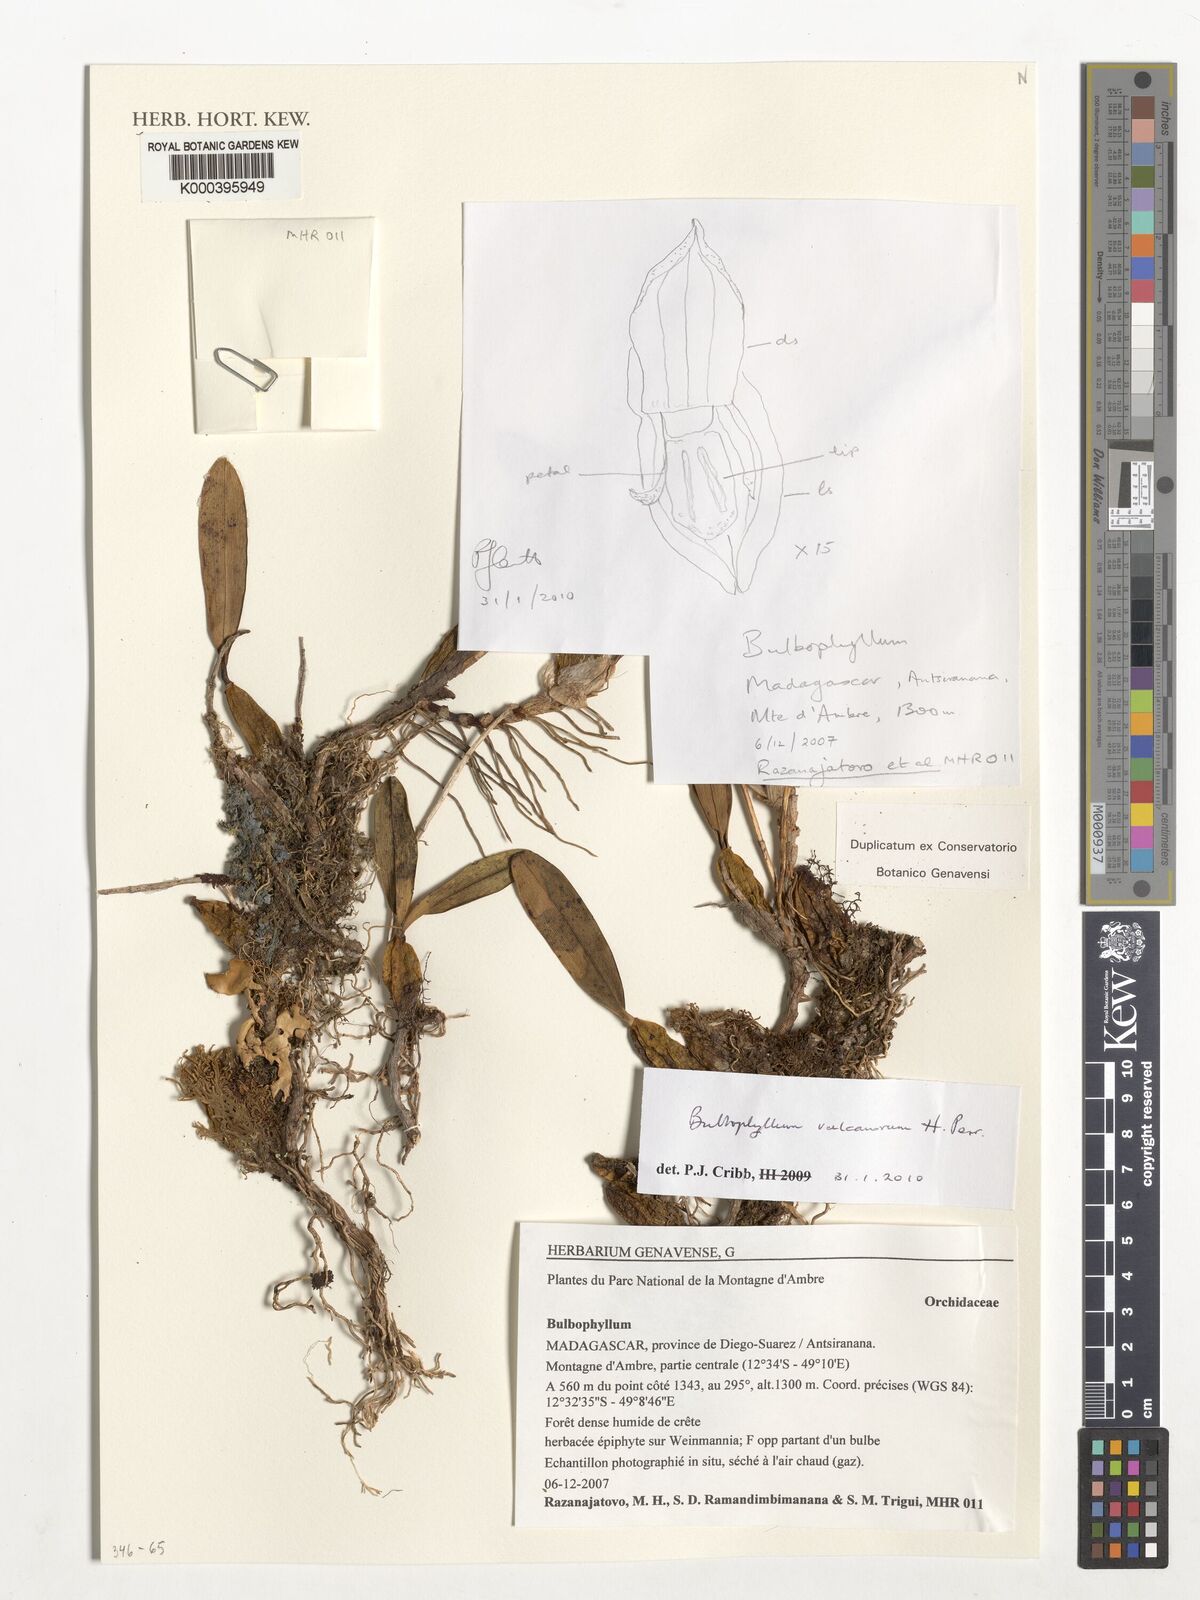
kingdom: Plantae
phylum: Tracheophyta
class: Liliopsida
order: Asparagales
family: Orchidaceae
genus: Bulbophyllum
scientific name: Bulbophyllum vulcanorum
